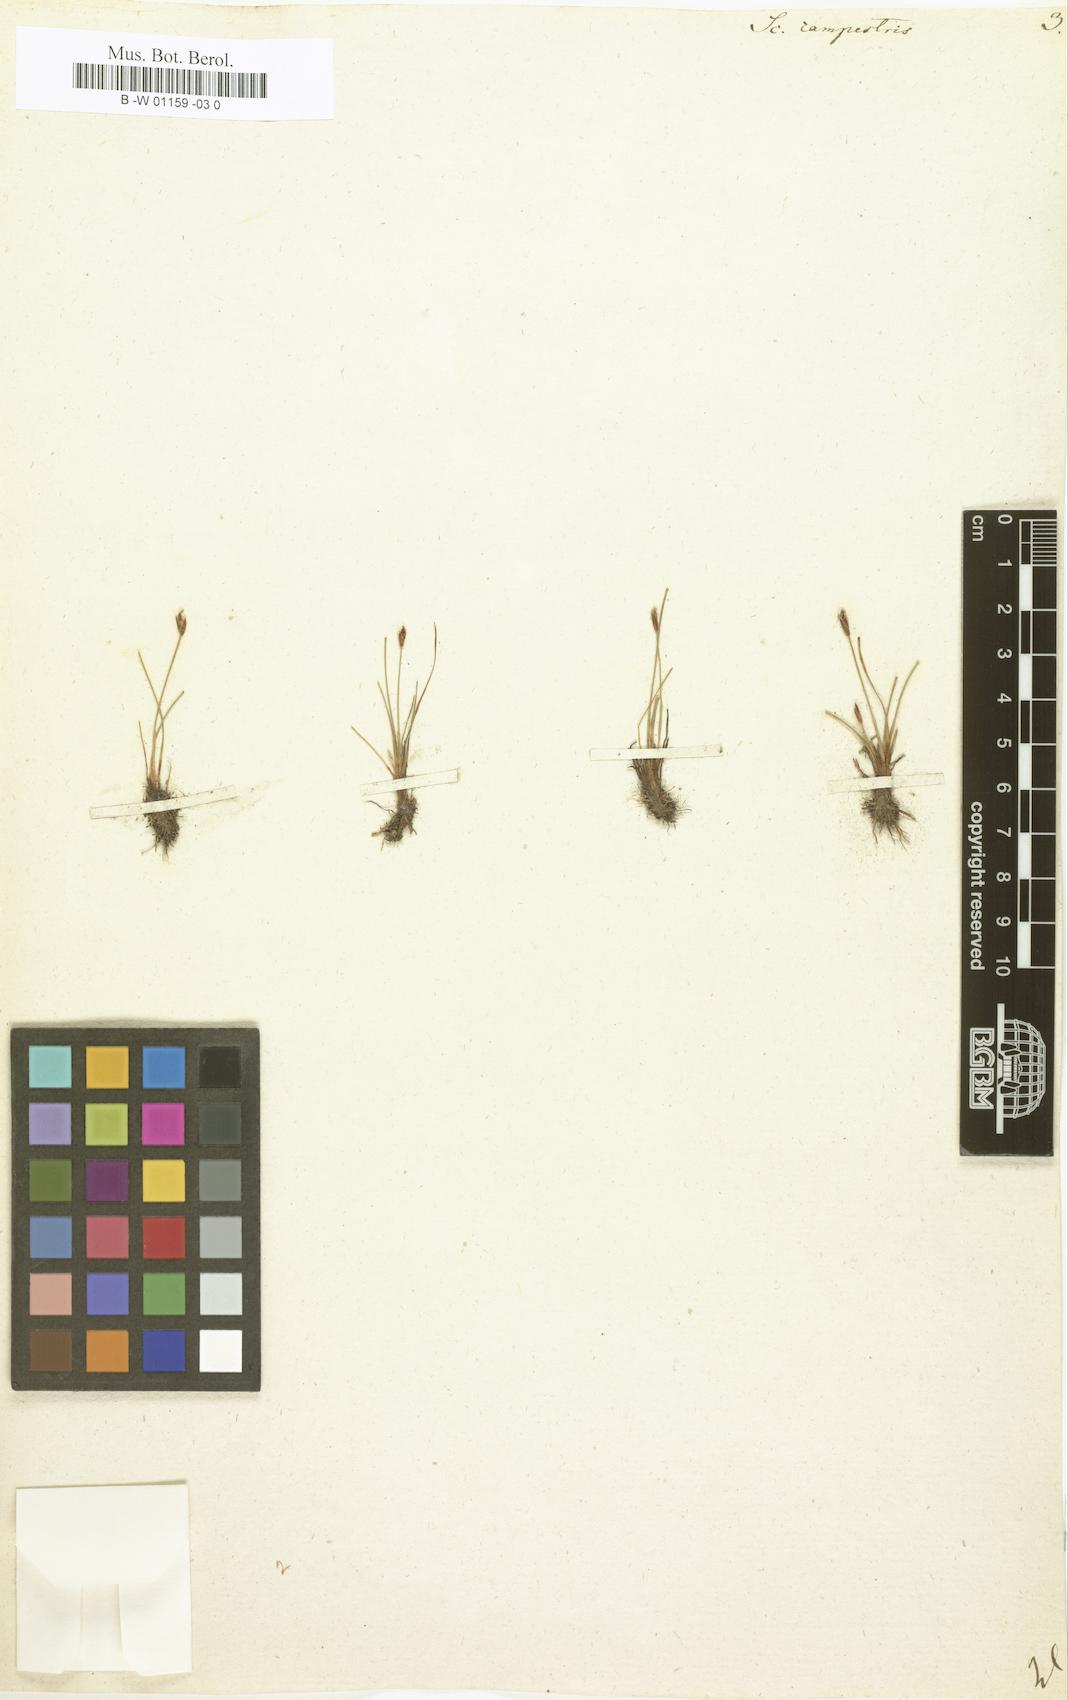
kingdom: Plantae
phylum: Tracheophyta
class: Liliopsida
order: Poales
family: Cyperaceae
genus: Eleocharis
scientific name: Eleocharis quinqueflora
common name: Few-flowered spike-rush
